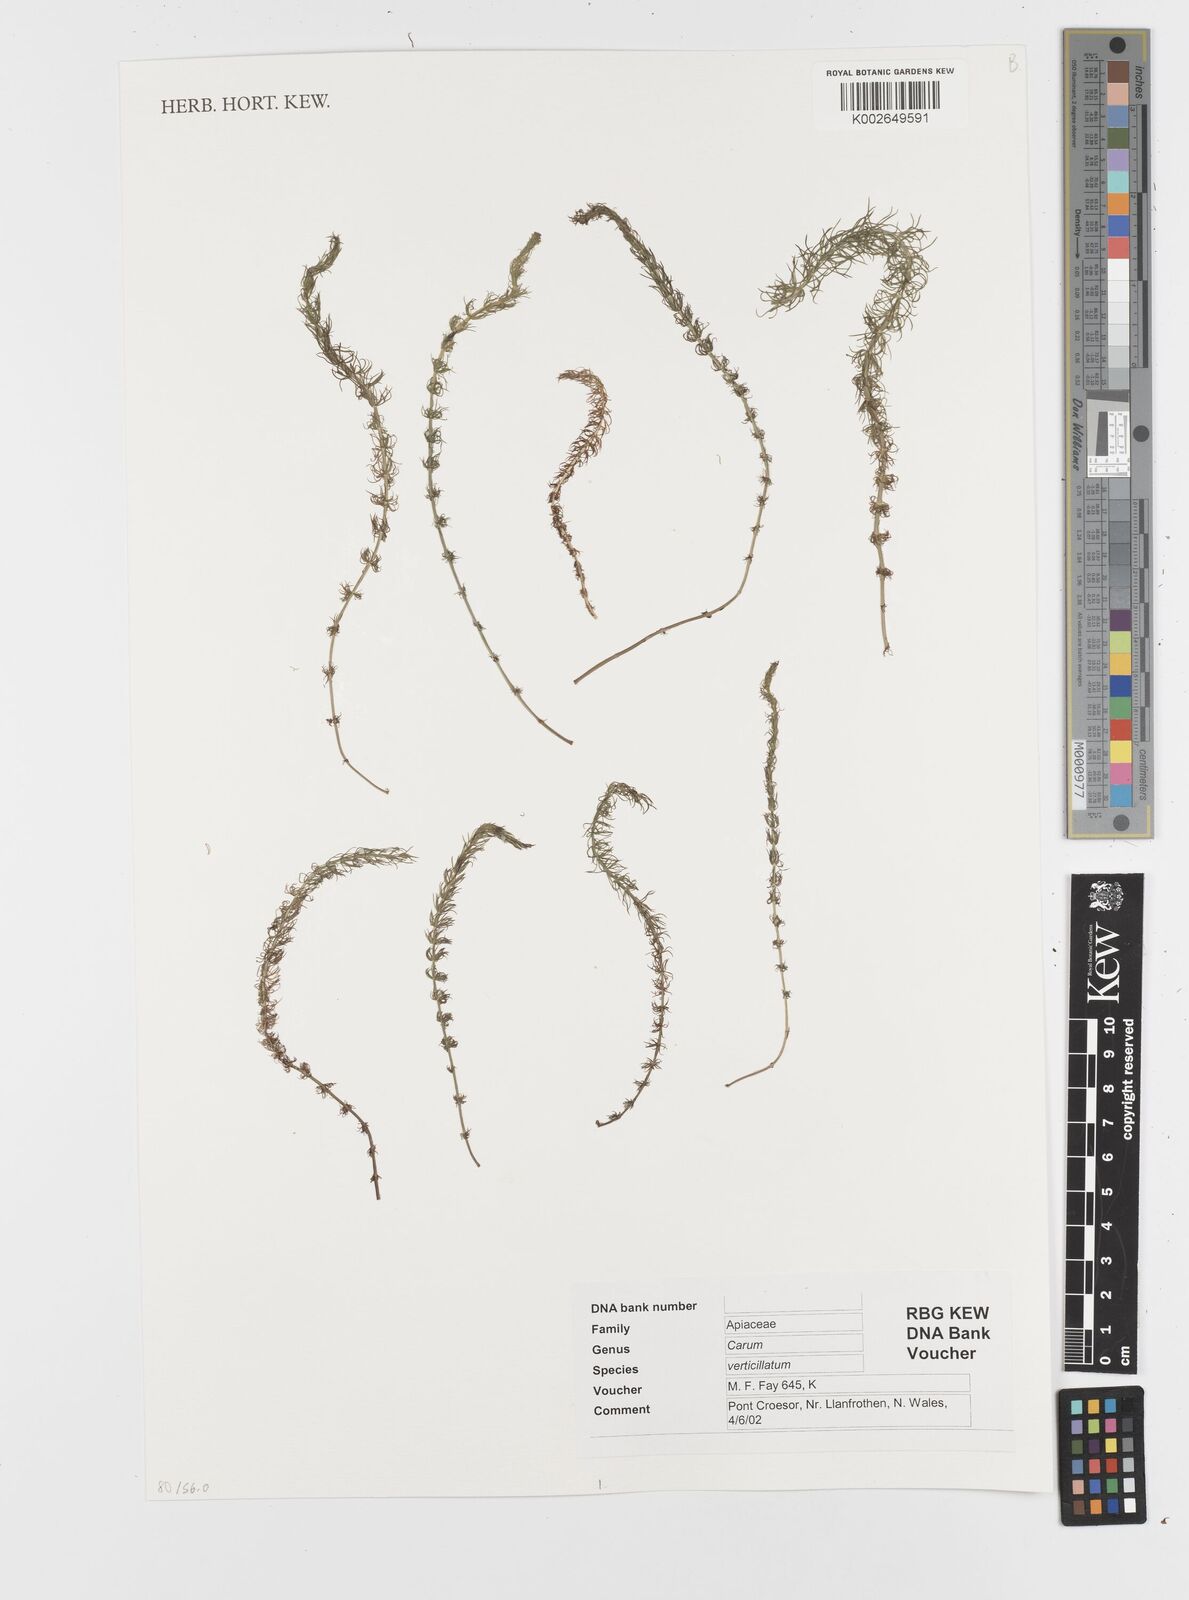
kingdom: Plantae
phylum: Tracheophyta
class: Magnoliopsida
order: Apiales
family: Apiaceae
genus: Trocdaris
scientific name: Trocdaris verticillatum
